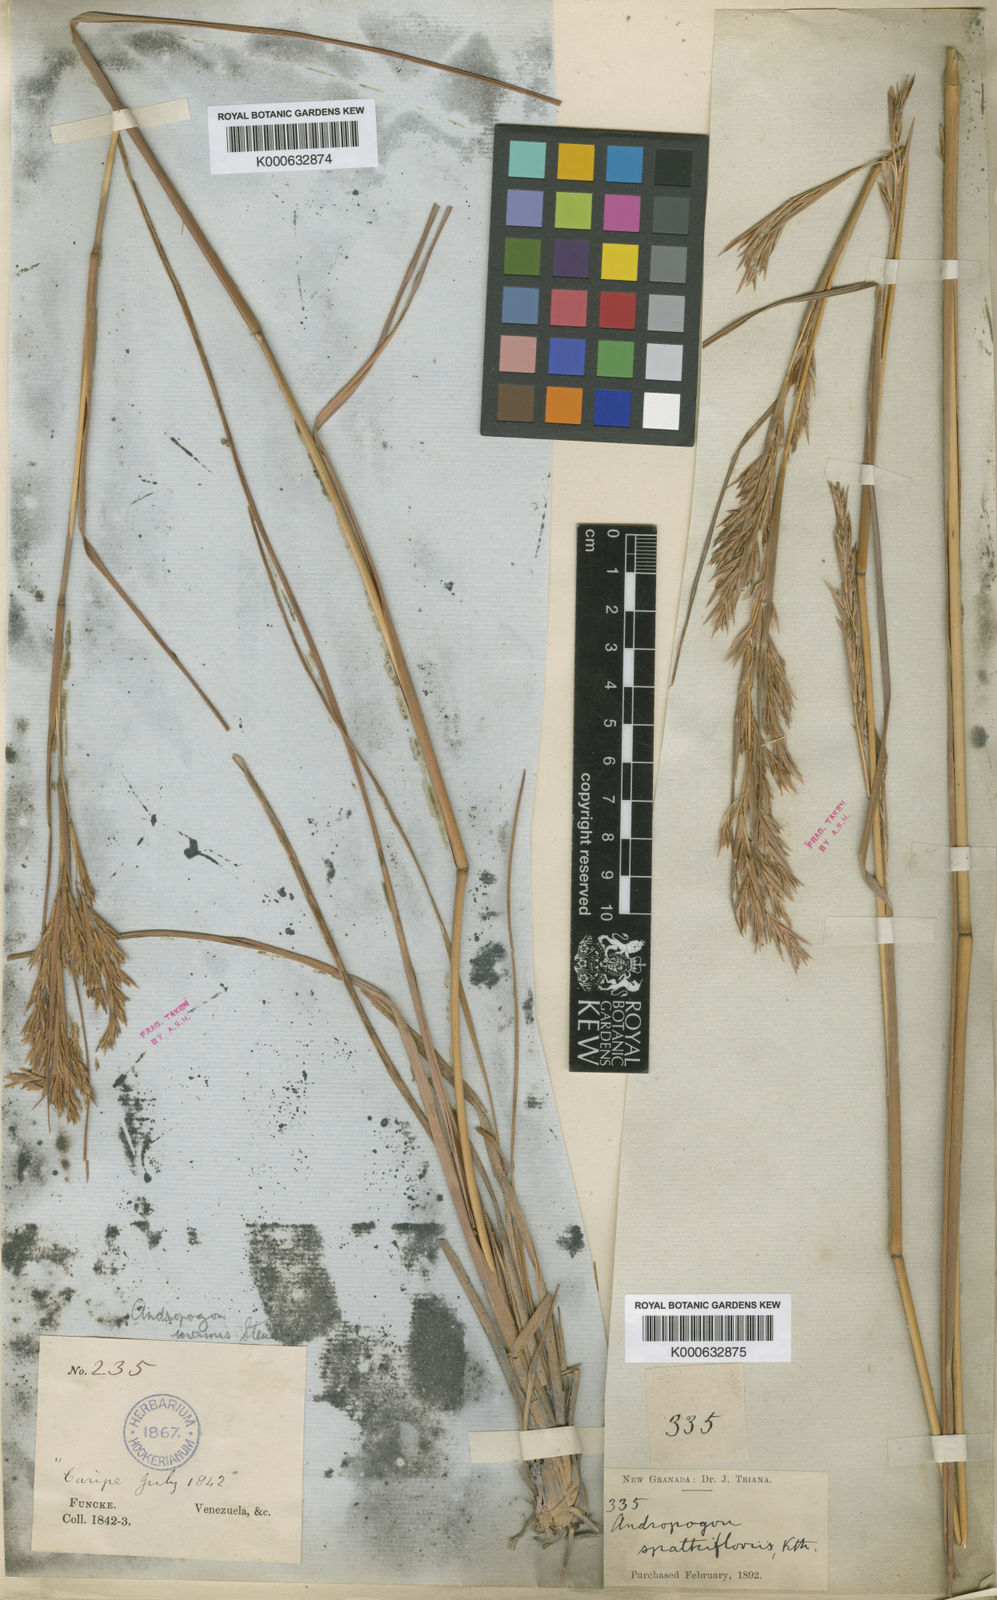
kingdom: Plantae
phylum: Tracheophyta
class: Liliopsida
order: Poales
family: Poaceae
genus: Andropogon
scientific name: Andropogon virgatus
